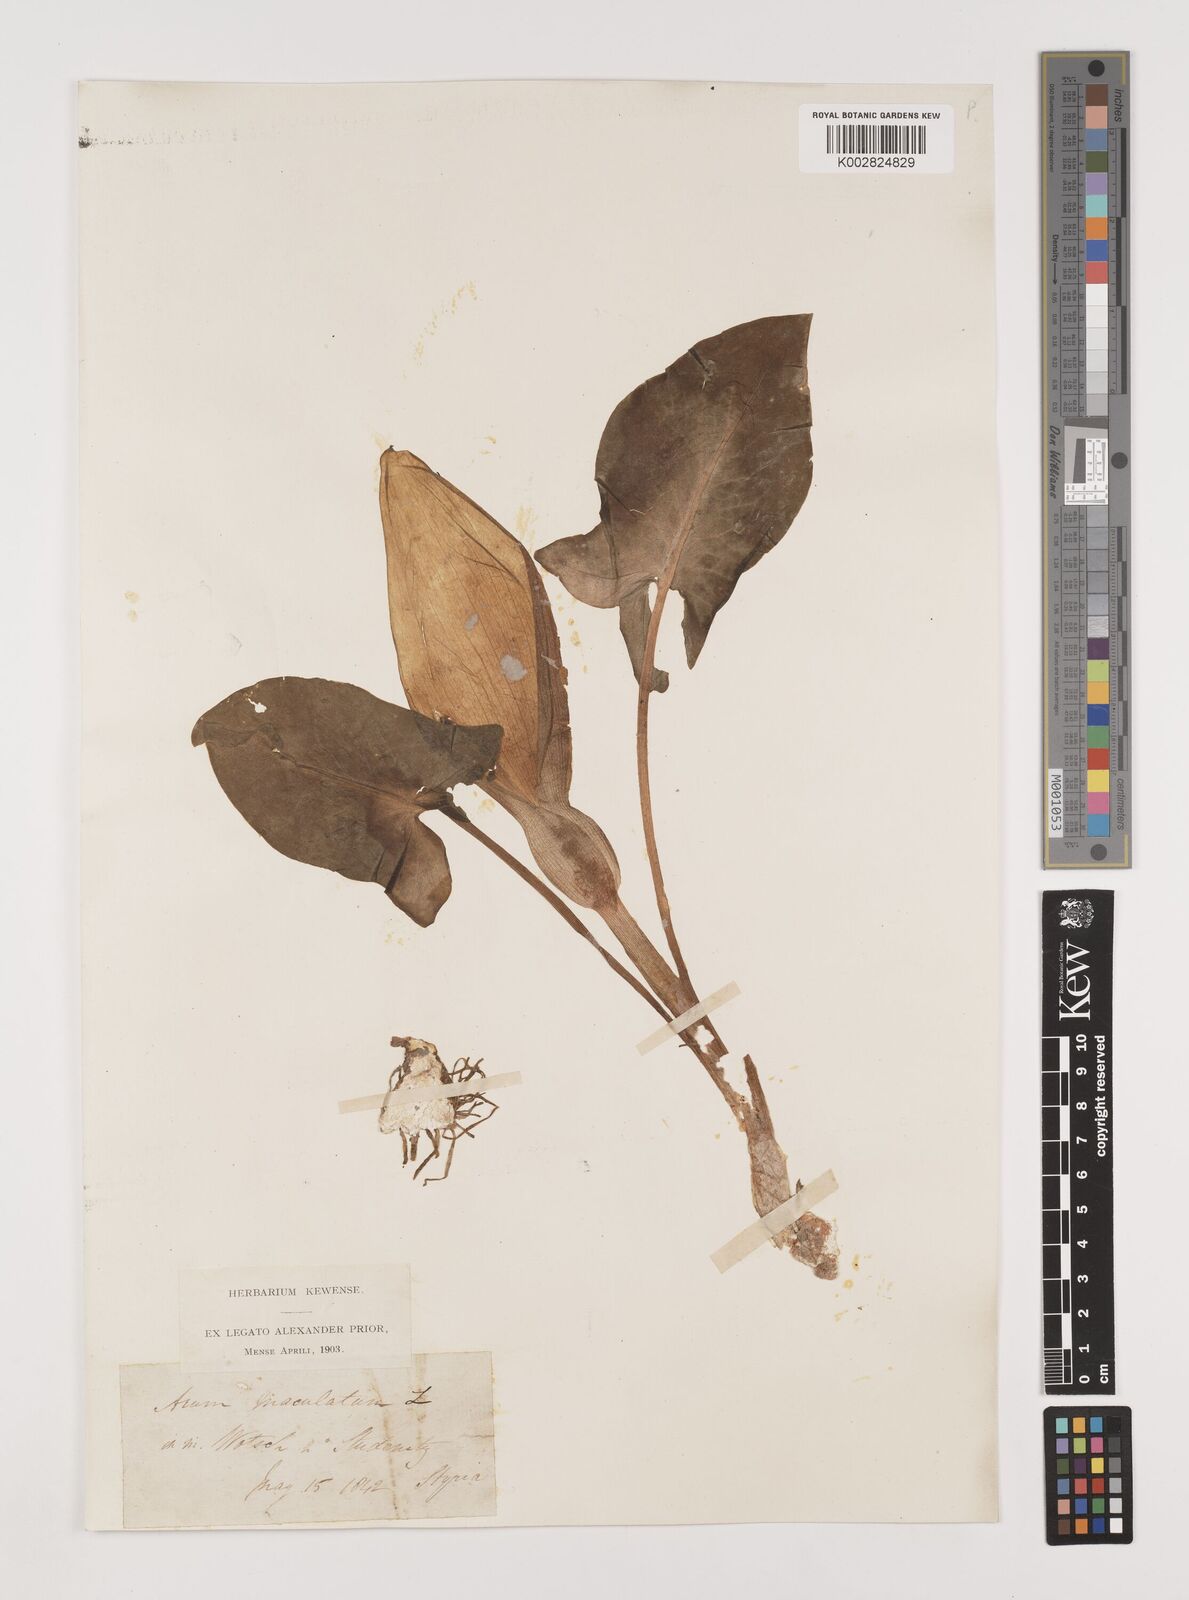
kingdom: Plantae
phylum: Tracheophyta
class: Liliopsida
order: Alismatales
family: Araceae
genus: Arum
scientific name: Arum maculatum
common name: Lords-and-ladies
